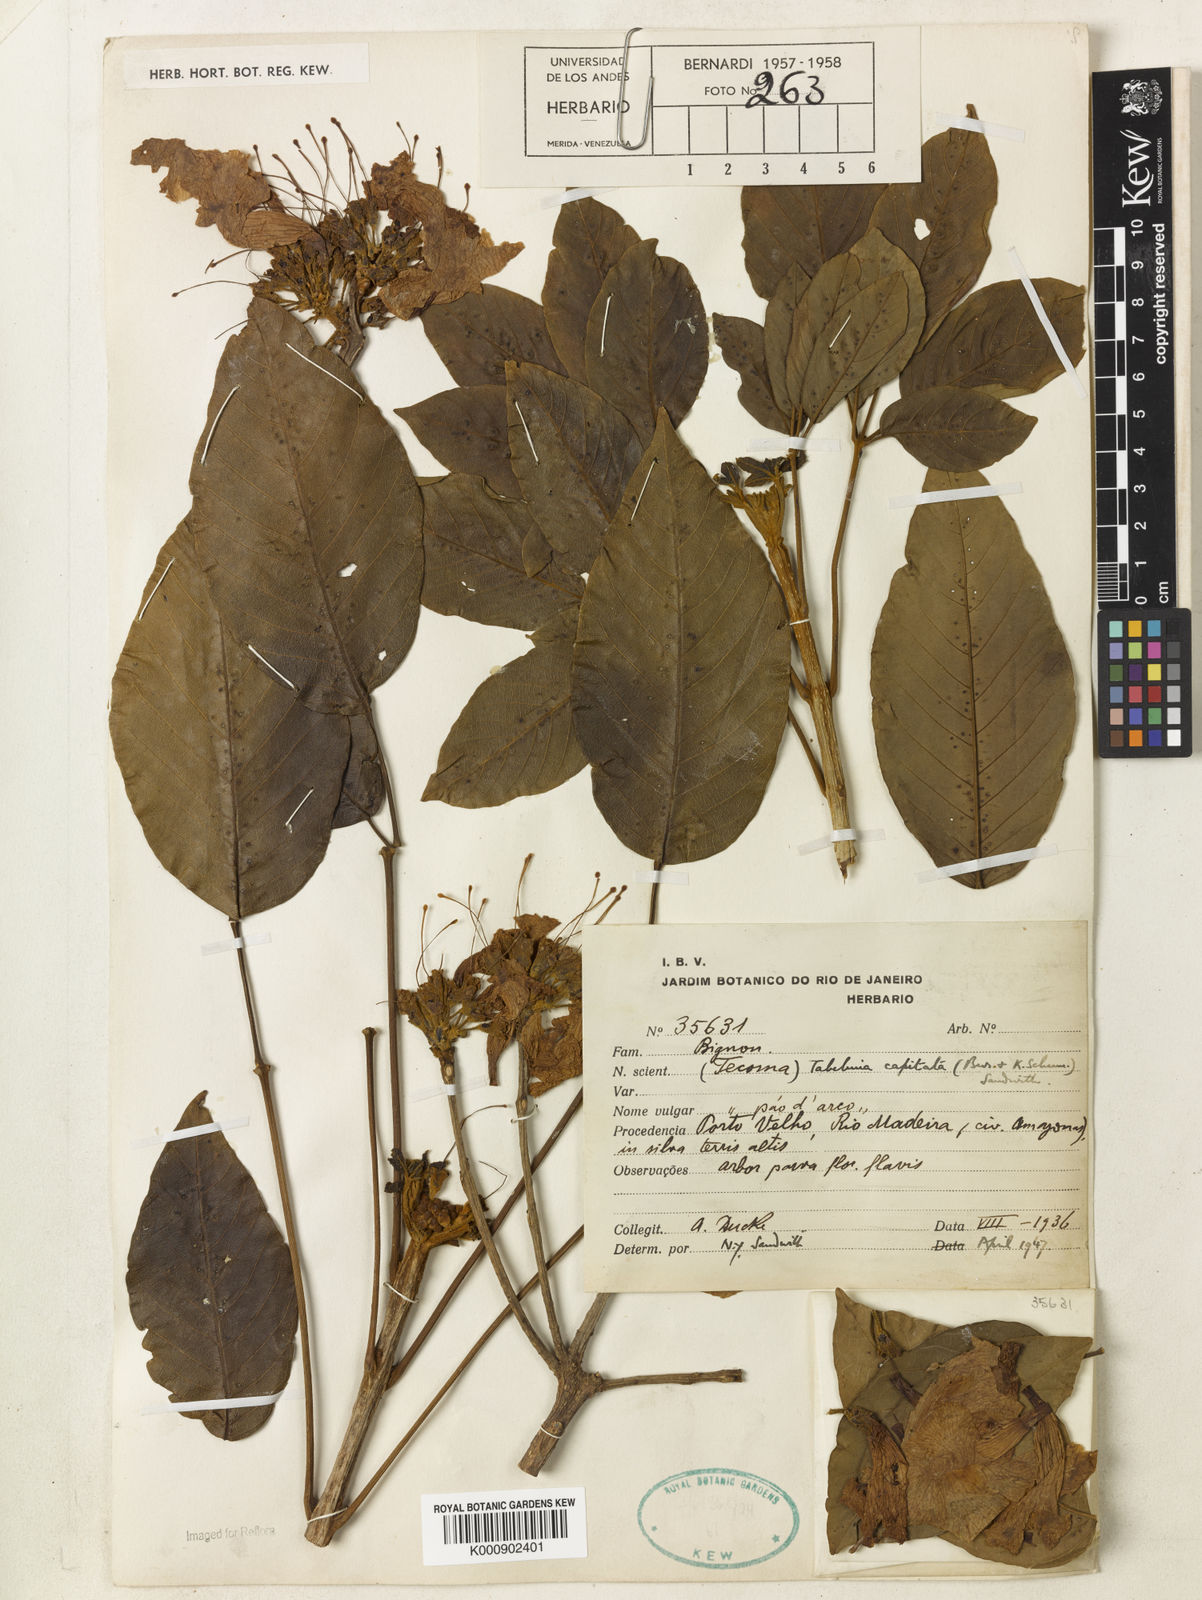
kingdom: Plantae
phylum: Tracheophyta
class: Magnoliopsida
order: Lamiales
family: Bignoniaceae
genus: Handroanthus
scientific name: Handroanthus capitatus
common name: Trumpet trees
